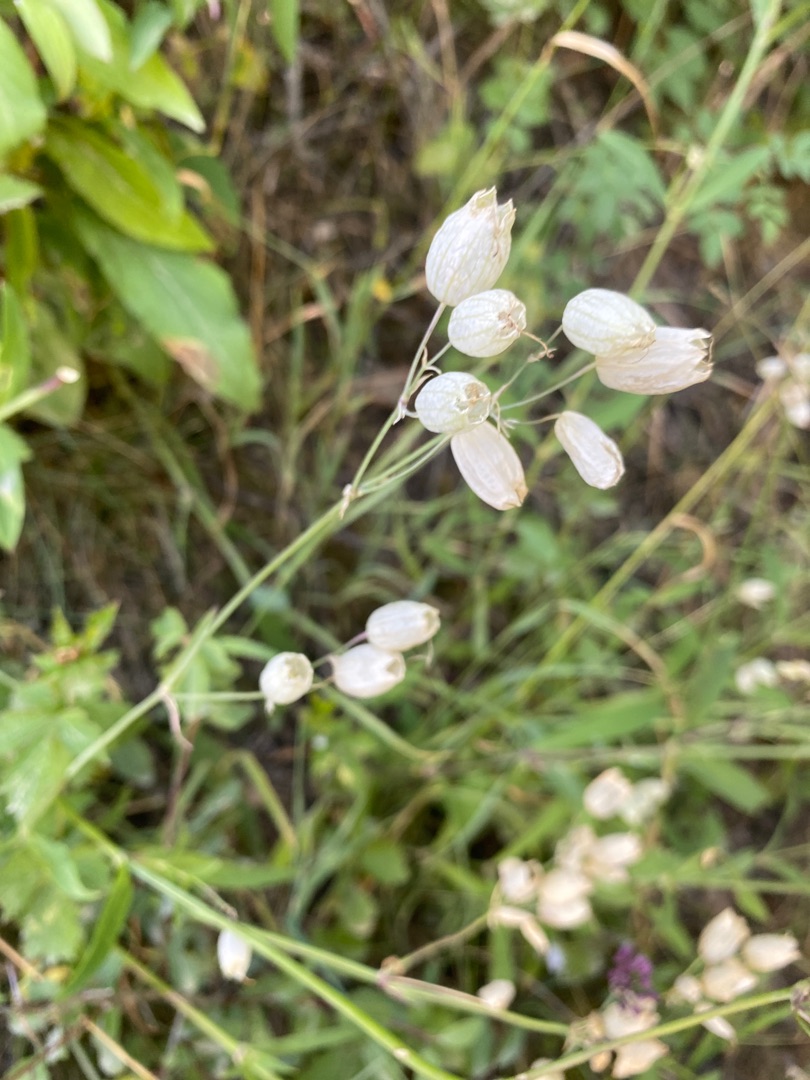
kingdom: Plantae
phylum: Tracheophyta
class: Magnoliopsida
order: Caryophyllales
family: Caryophyllaceae
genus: Silene
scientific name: Silene vulgaris
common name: Blæresmælde
